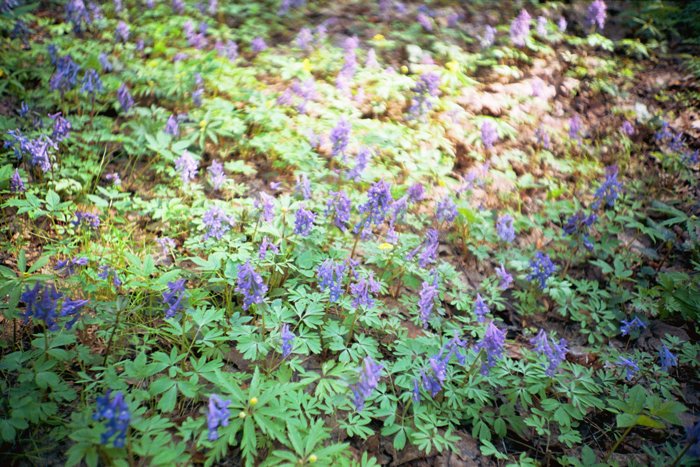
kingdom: Plantae
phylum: Tracheophyta
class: Magnoliopsida
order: Ranunculales
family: Papaveraceae
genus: Corydalis
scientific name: Corydalis solida
